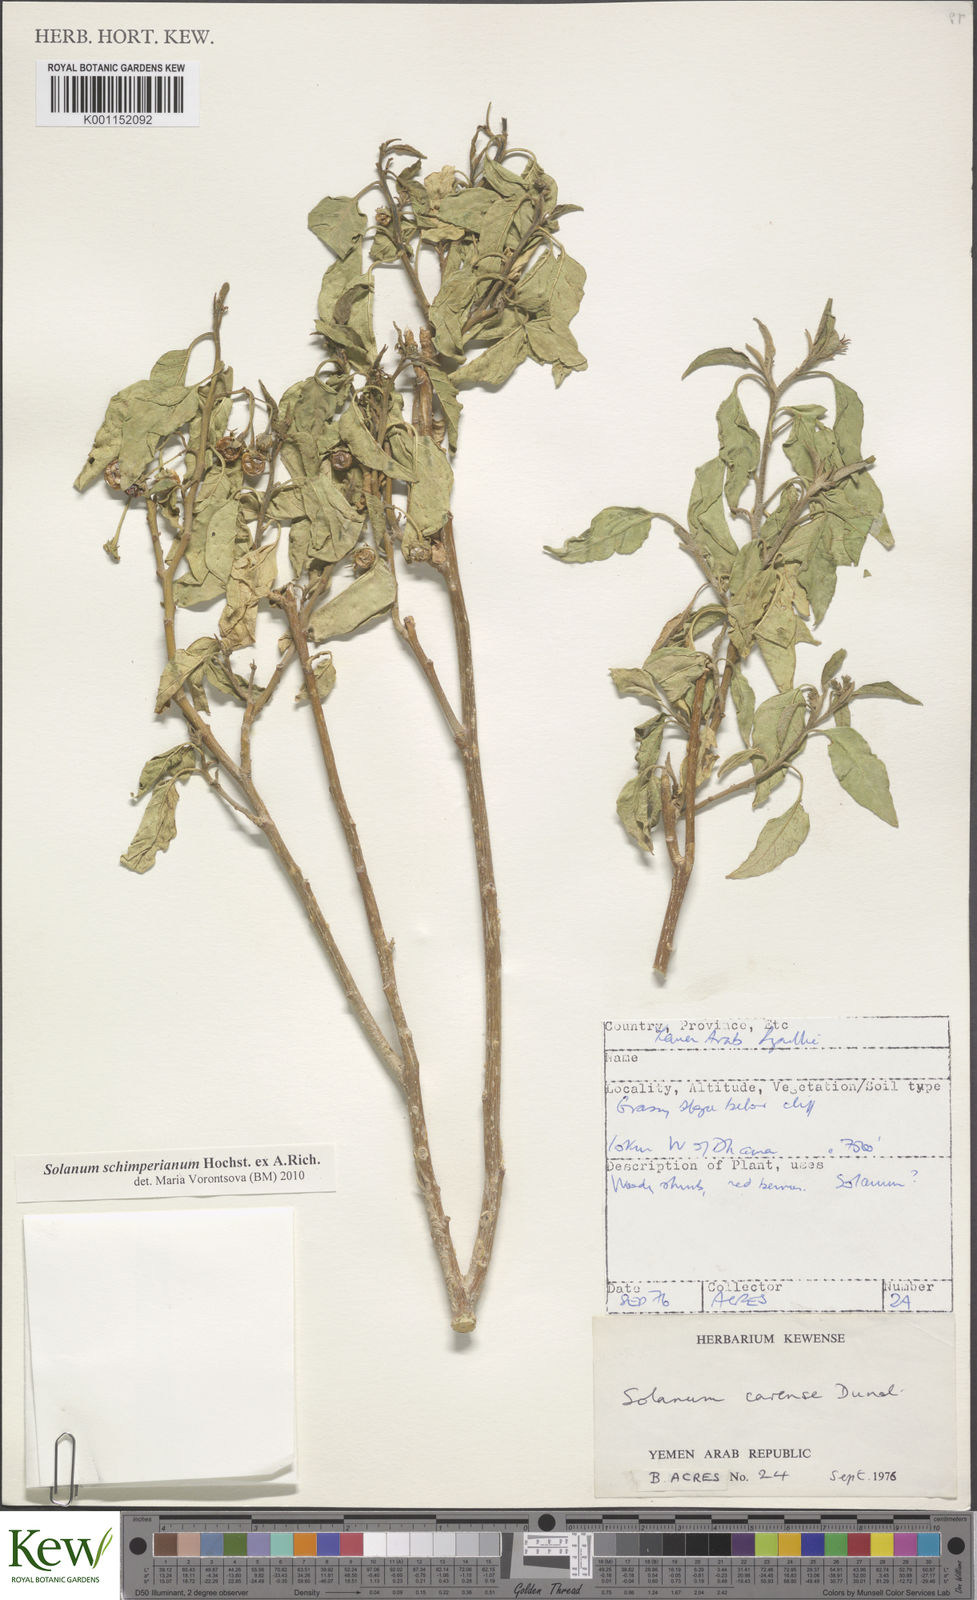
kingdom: Plantae
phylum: Tracheophyta
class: Magnoliopsida
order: Solanales
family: Solanaceae
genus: Solanum
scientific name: Solanum schimperianum
